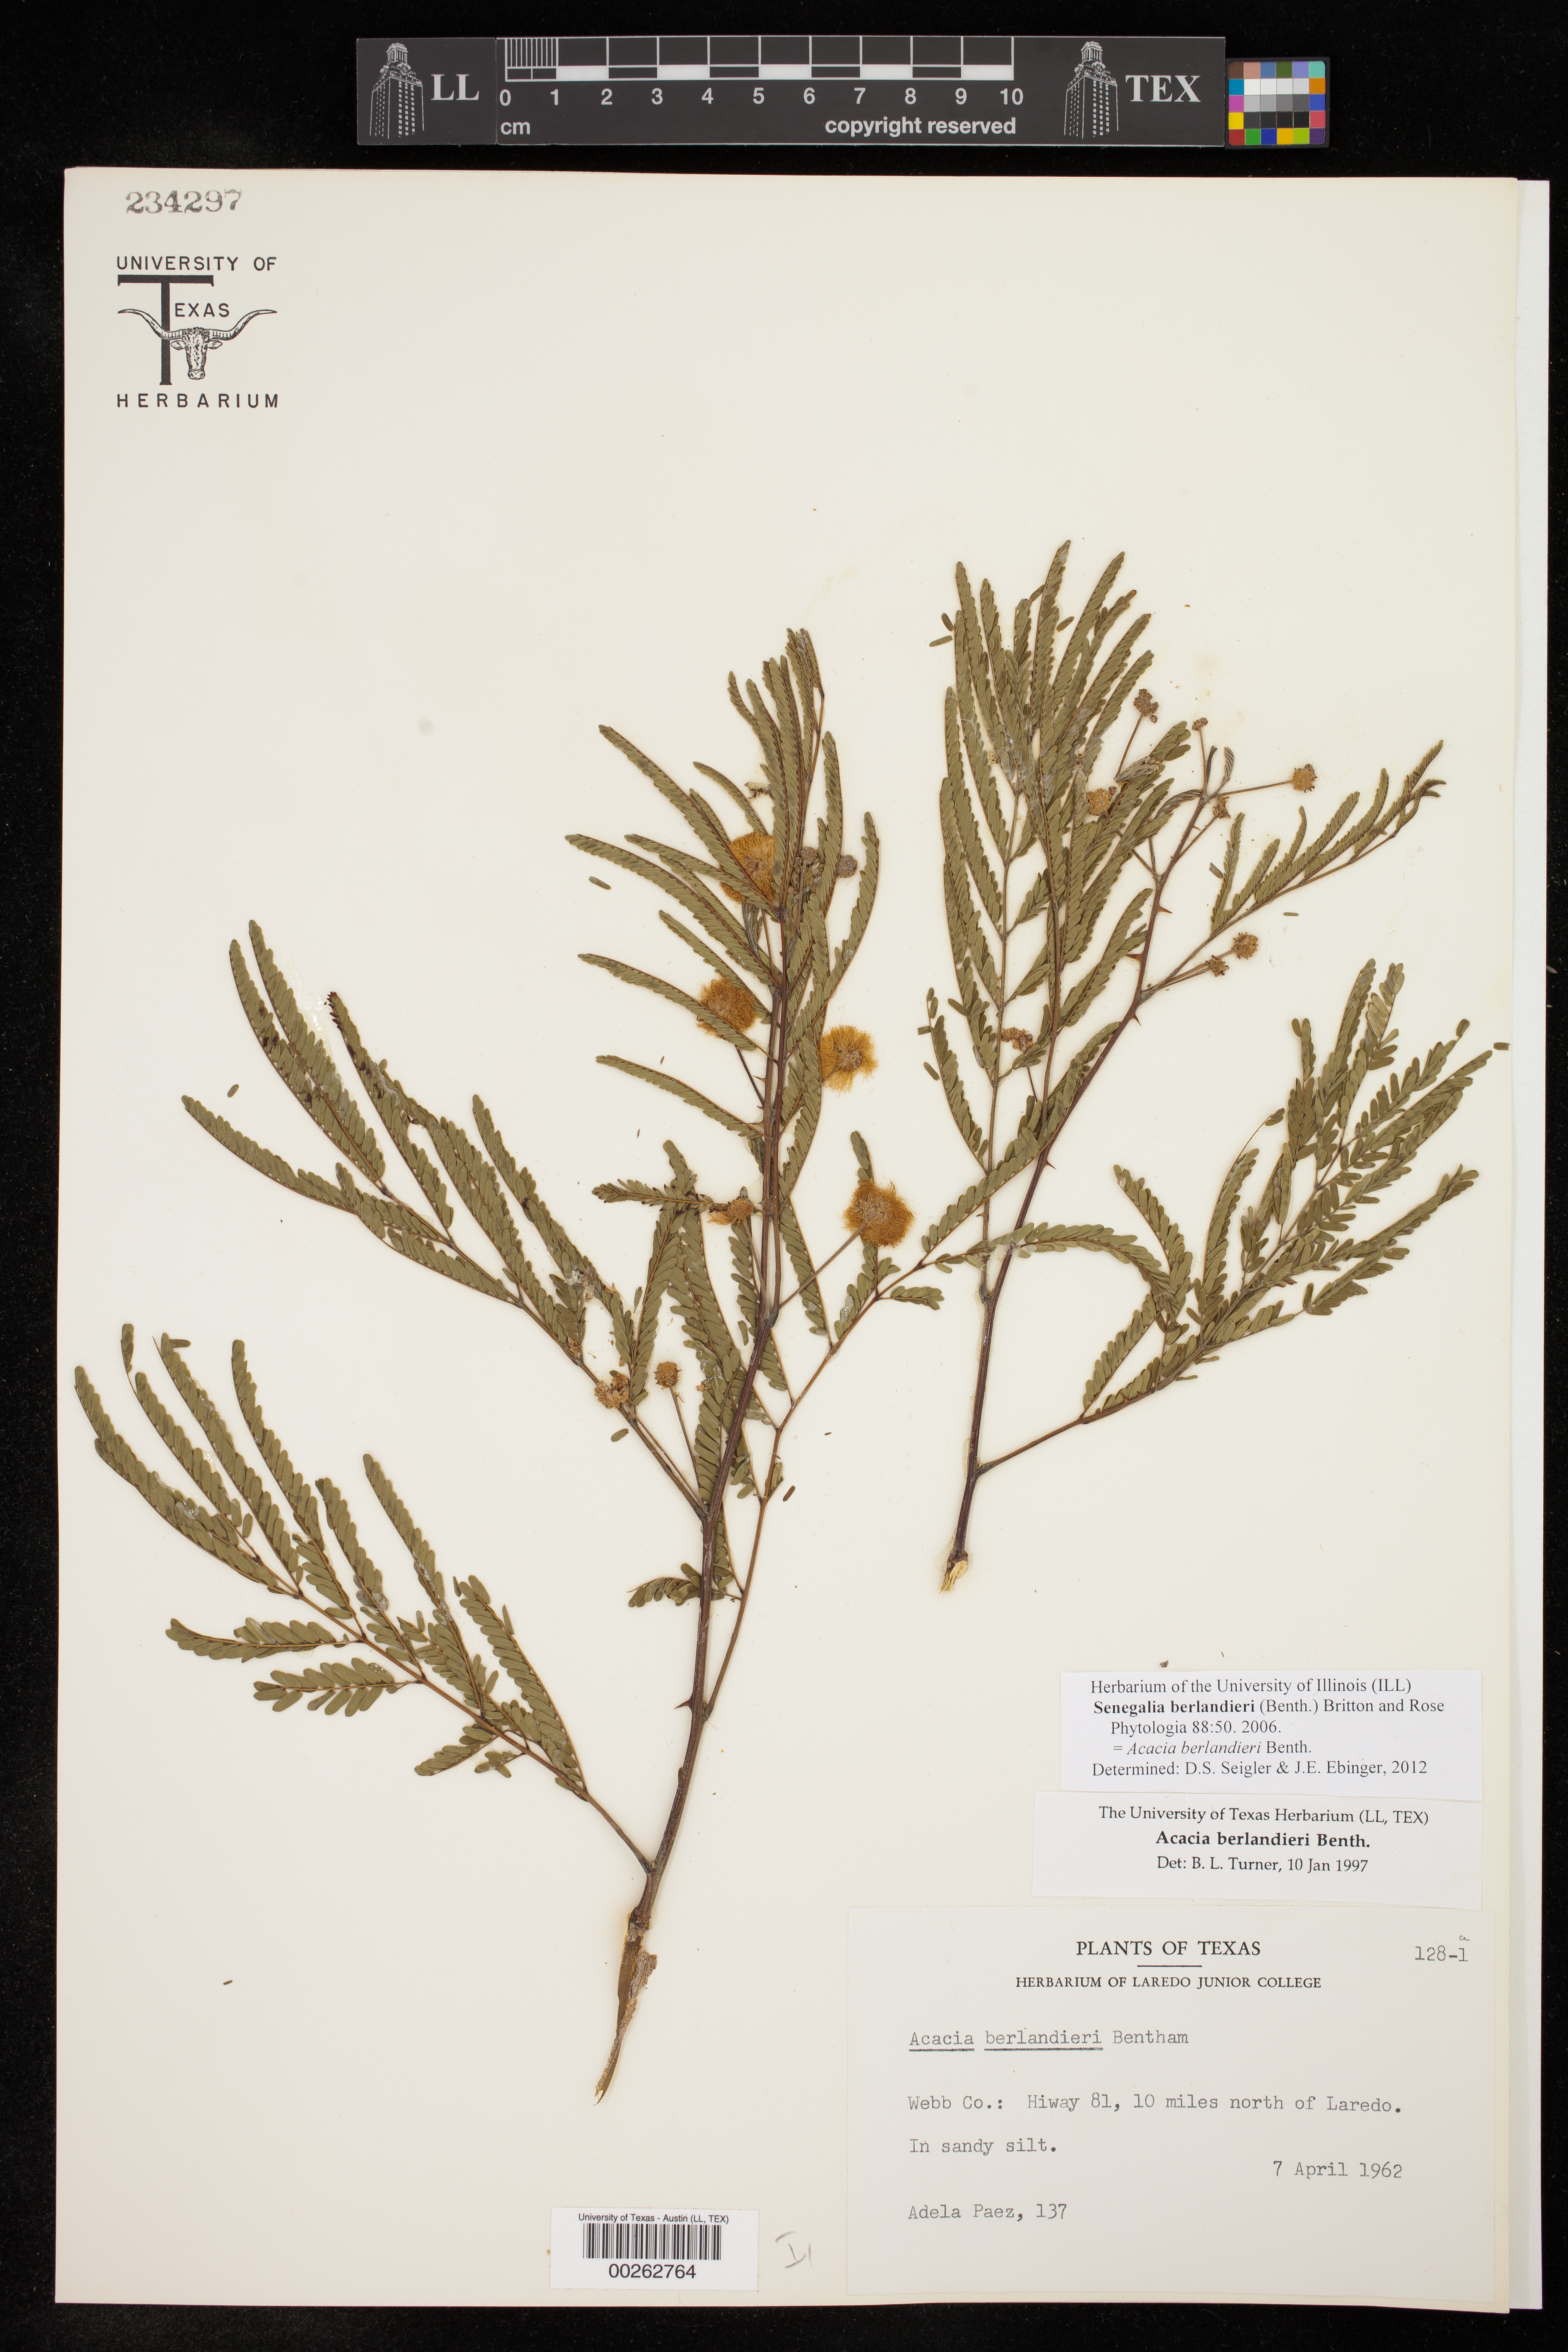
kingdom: Plantae
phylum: Tracheophyta
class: Magnoliopsida
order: Fabales
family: Fabaceae
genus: Senegalia
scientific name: Senegalia berlandieri
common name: Berlandier acacia
